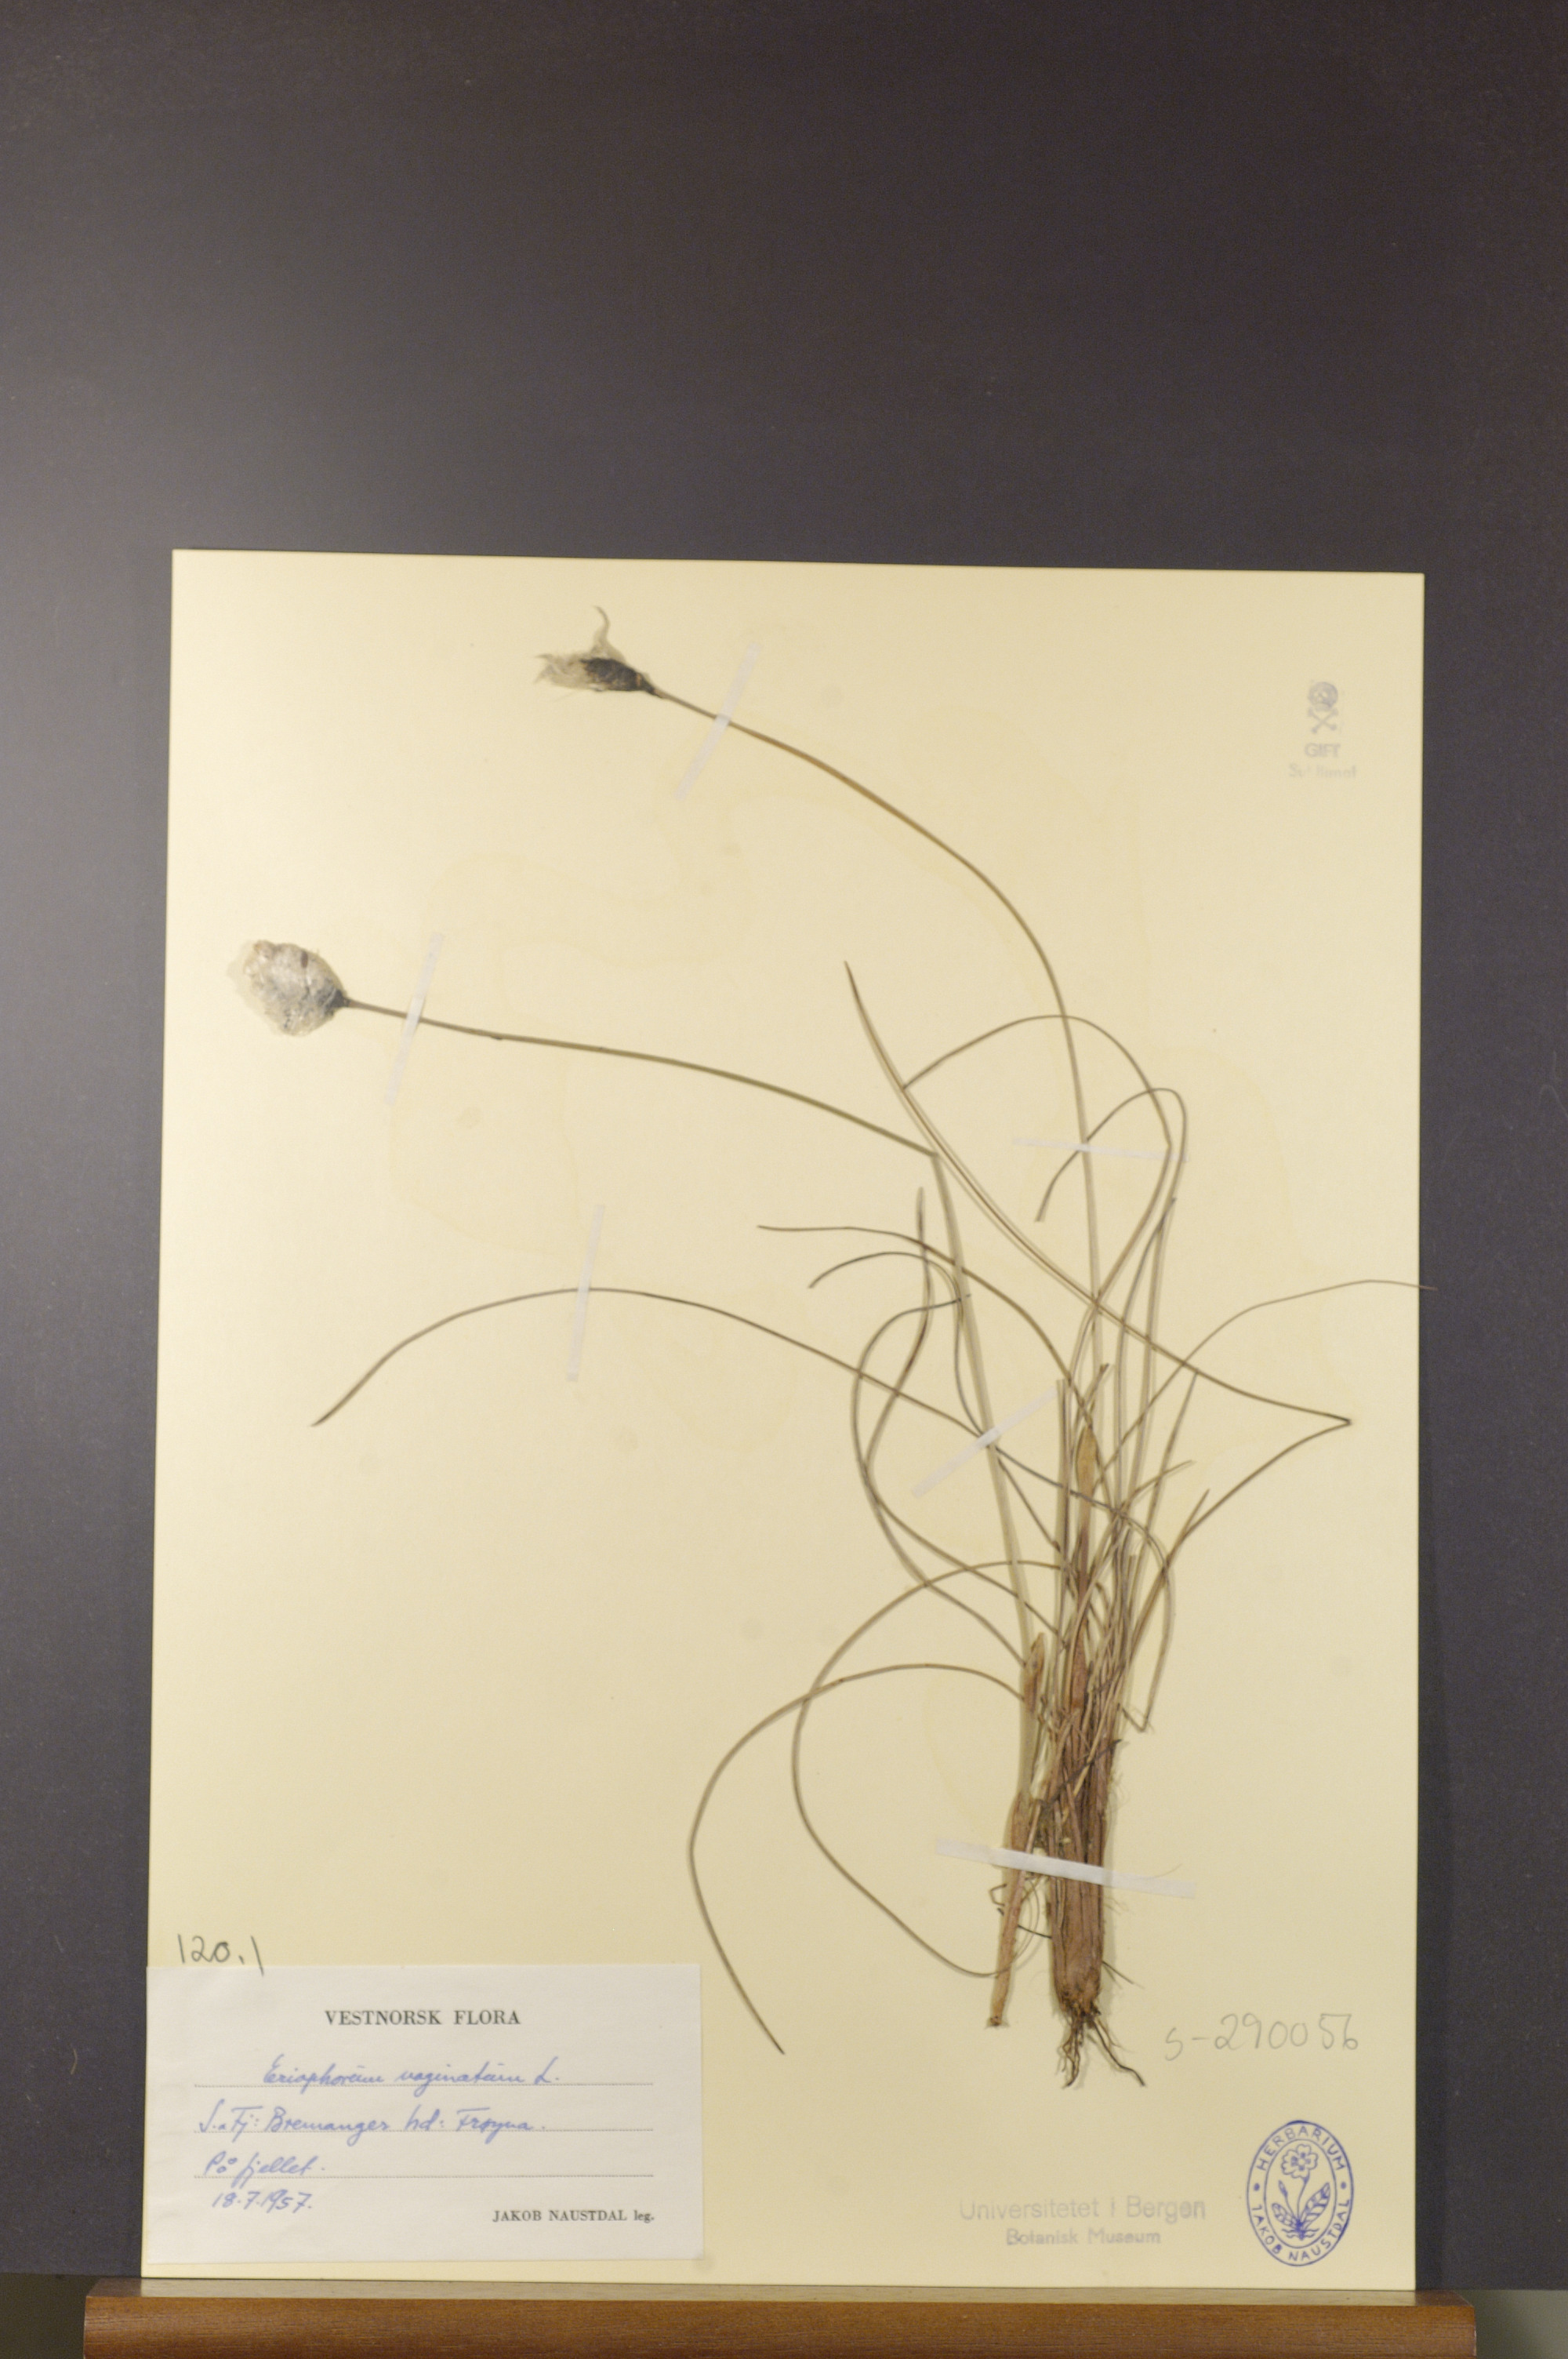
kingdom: Plantae
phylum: Tracheophyta
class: Liliopsida
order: Poales
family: Cyperaceae
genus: Eriophorum
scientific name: Eriophorum vaginatum
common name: Hare's-tail cottongrass
